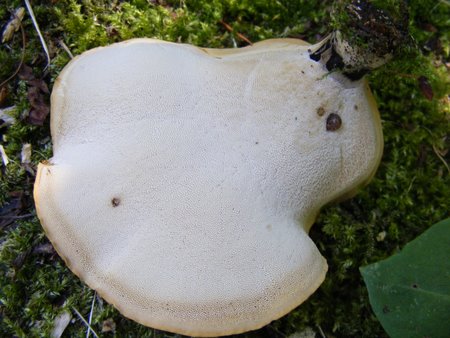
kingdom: Fungi
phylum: Basidiomycota
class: Agaricomycetes
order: Polyporales
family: Polyporaceae
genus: Cerioporus
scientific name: Cerioporus varius
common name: foranderlig stilkporesvamp
